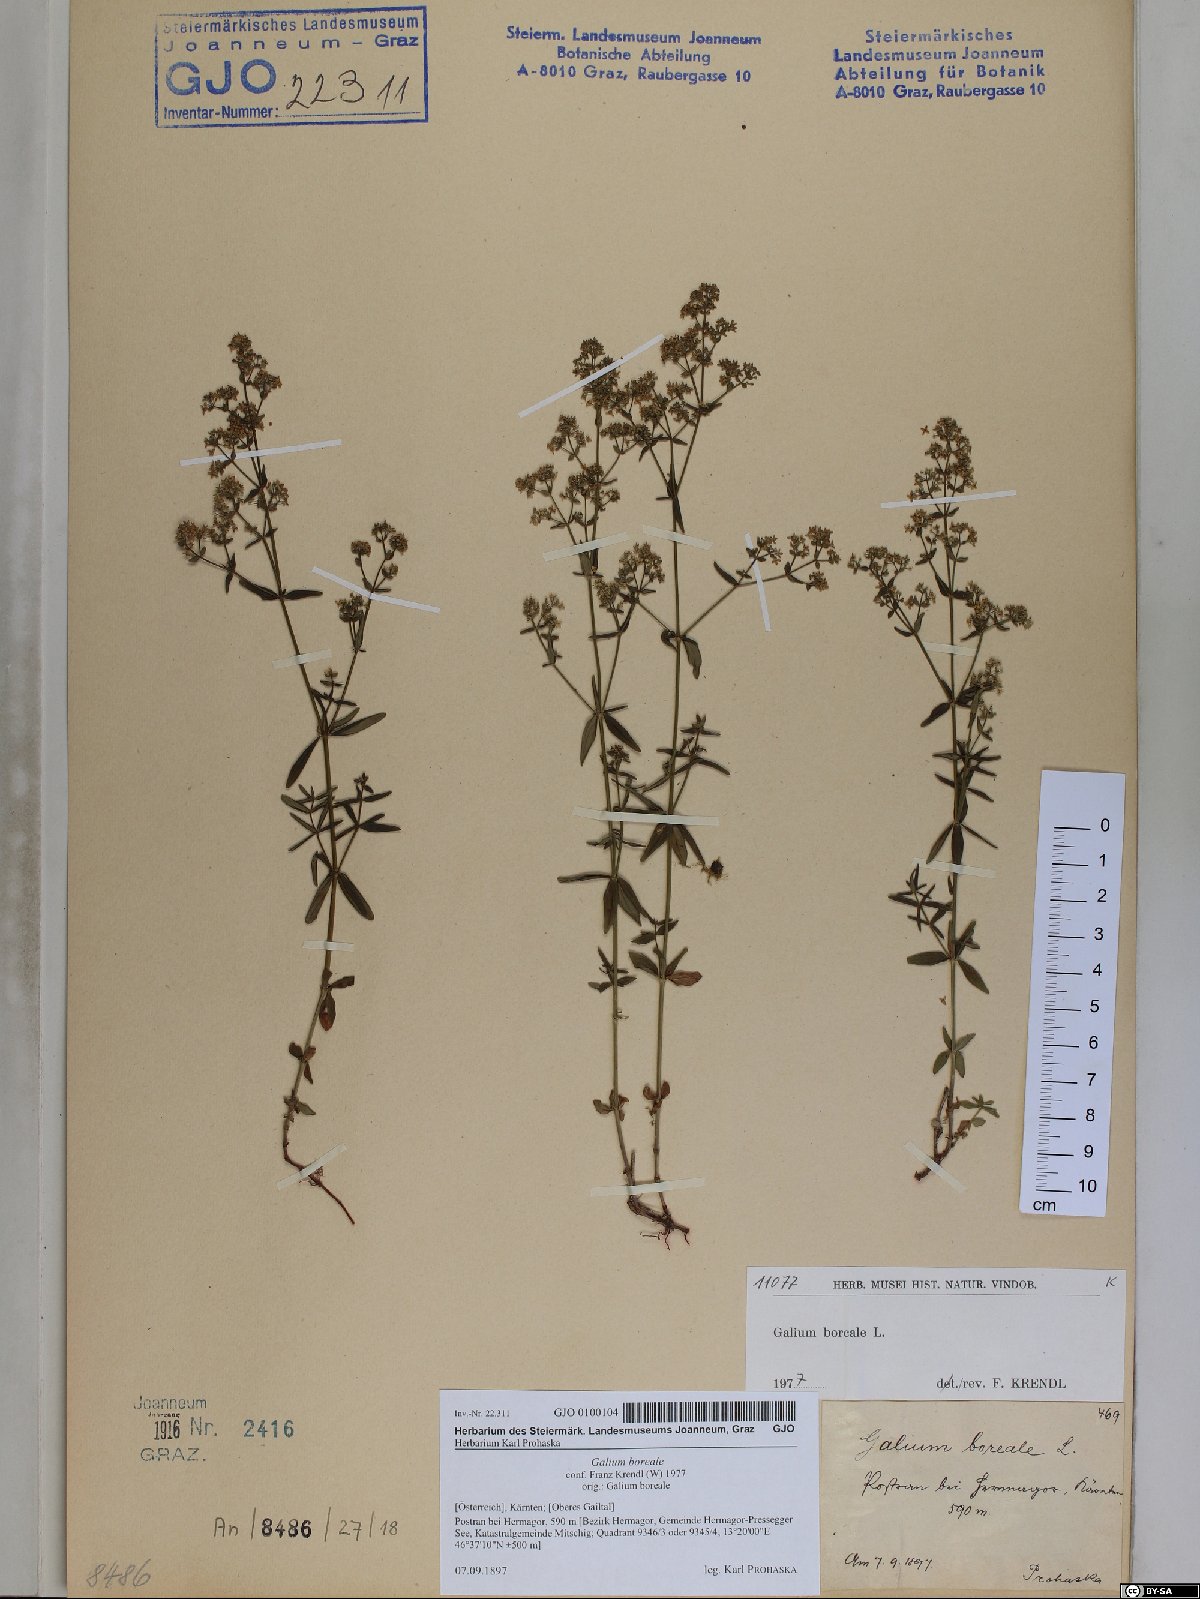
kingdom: Plantae
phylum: Tracheophyta
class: Magnoliopsida
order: Gentianales
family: Rubiaceae
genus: Galium
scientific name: Galium boreale
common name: Northern bedstraw
